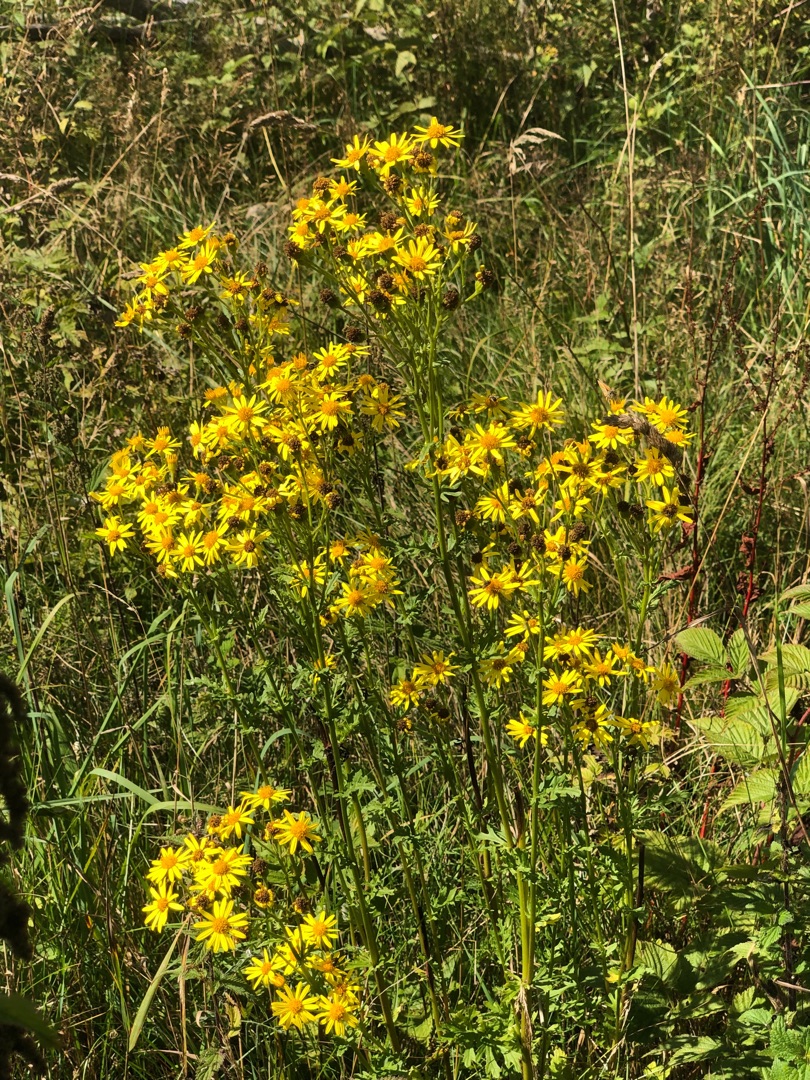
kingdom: Plantae
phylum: Tracheophyta
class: Magnoliopsida
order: Asterales
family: Asteraceae
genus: Jacobaea
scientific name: Jacobaea vulgaris
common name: Eng-brandbæger
